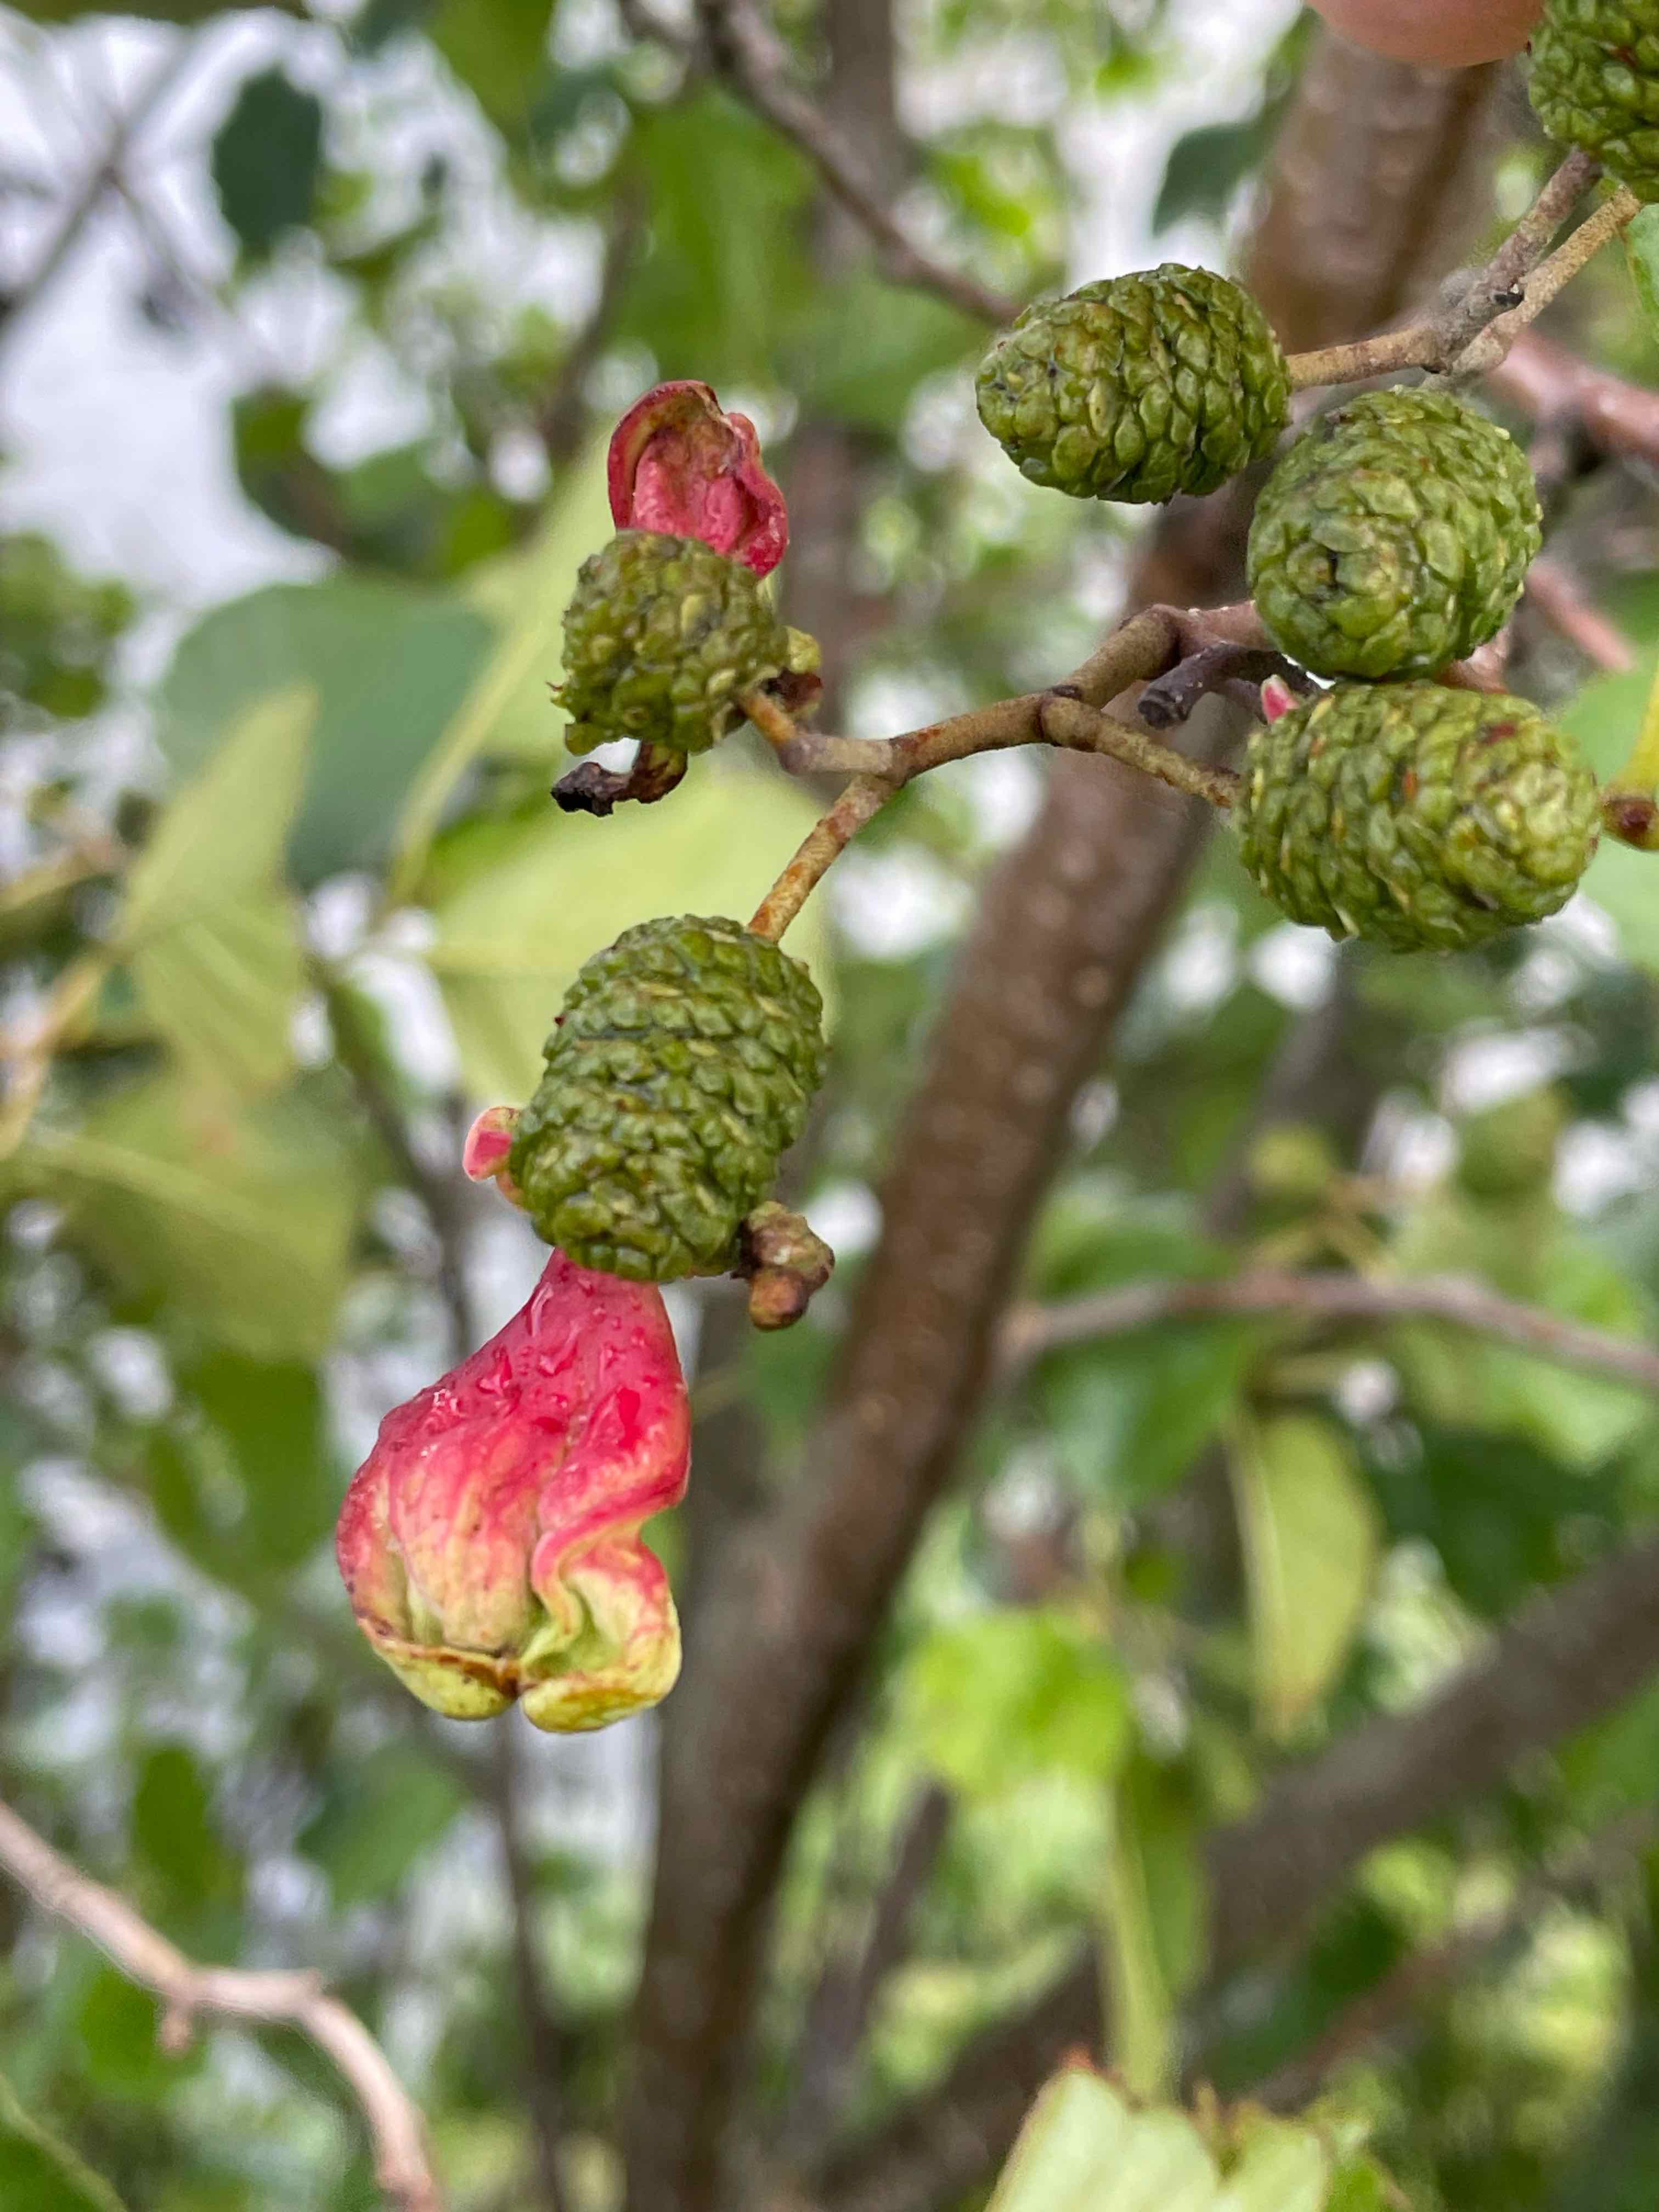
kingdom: Fungi
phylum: Ascomycota
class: Taphrinomycetes
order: Taphrinales
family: Taphrinaceae
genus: Taphrina
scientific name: Taphrina alni
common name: Alder tongue
